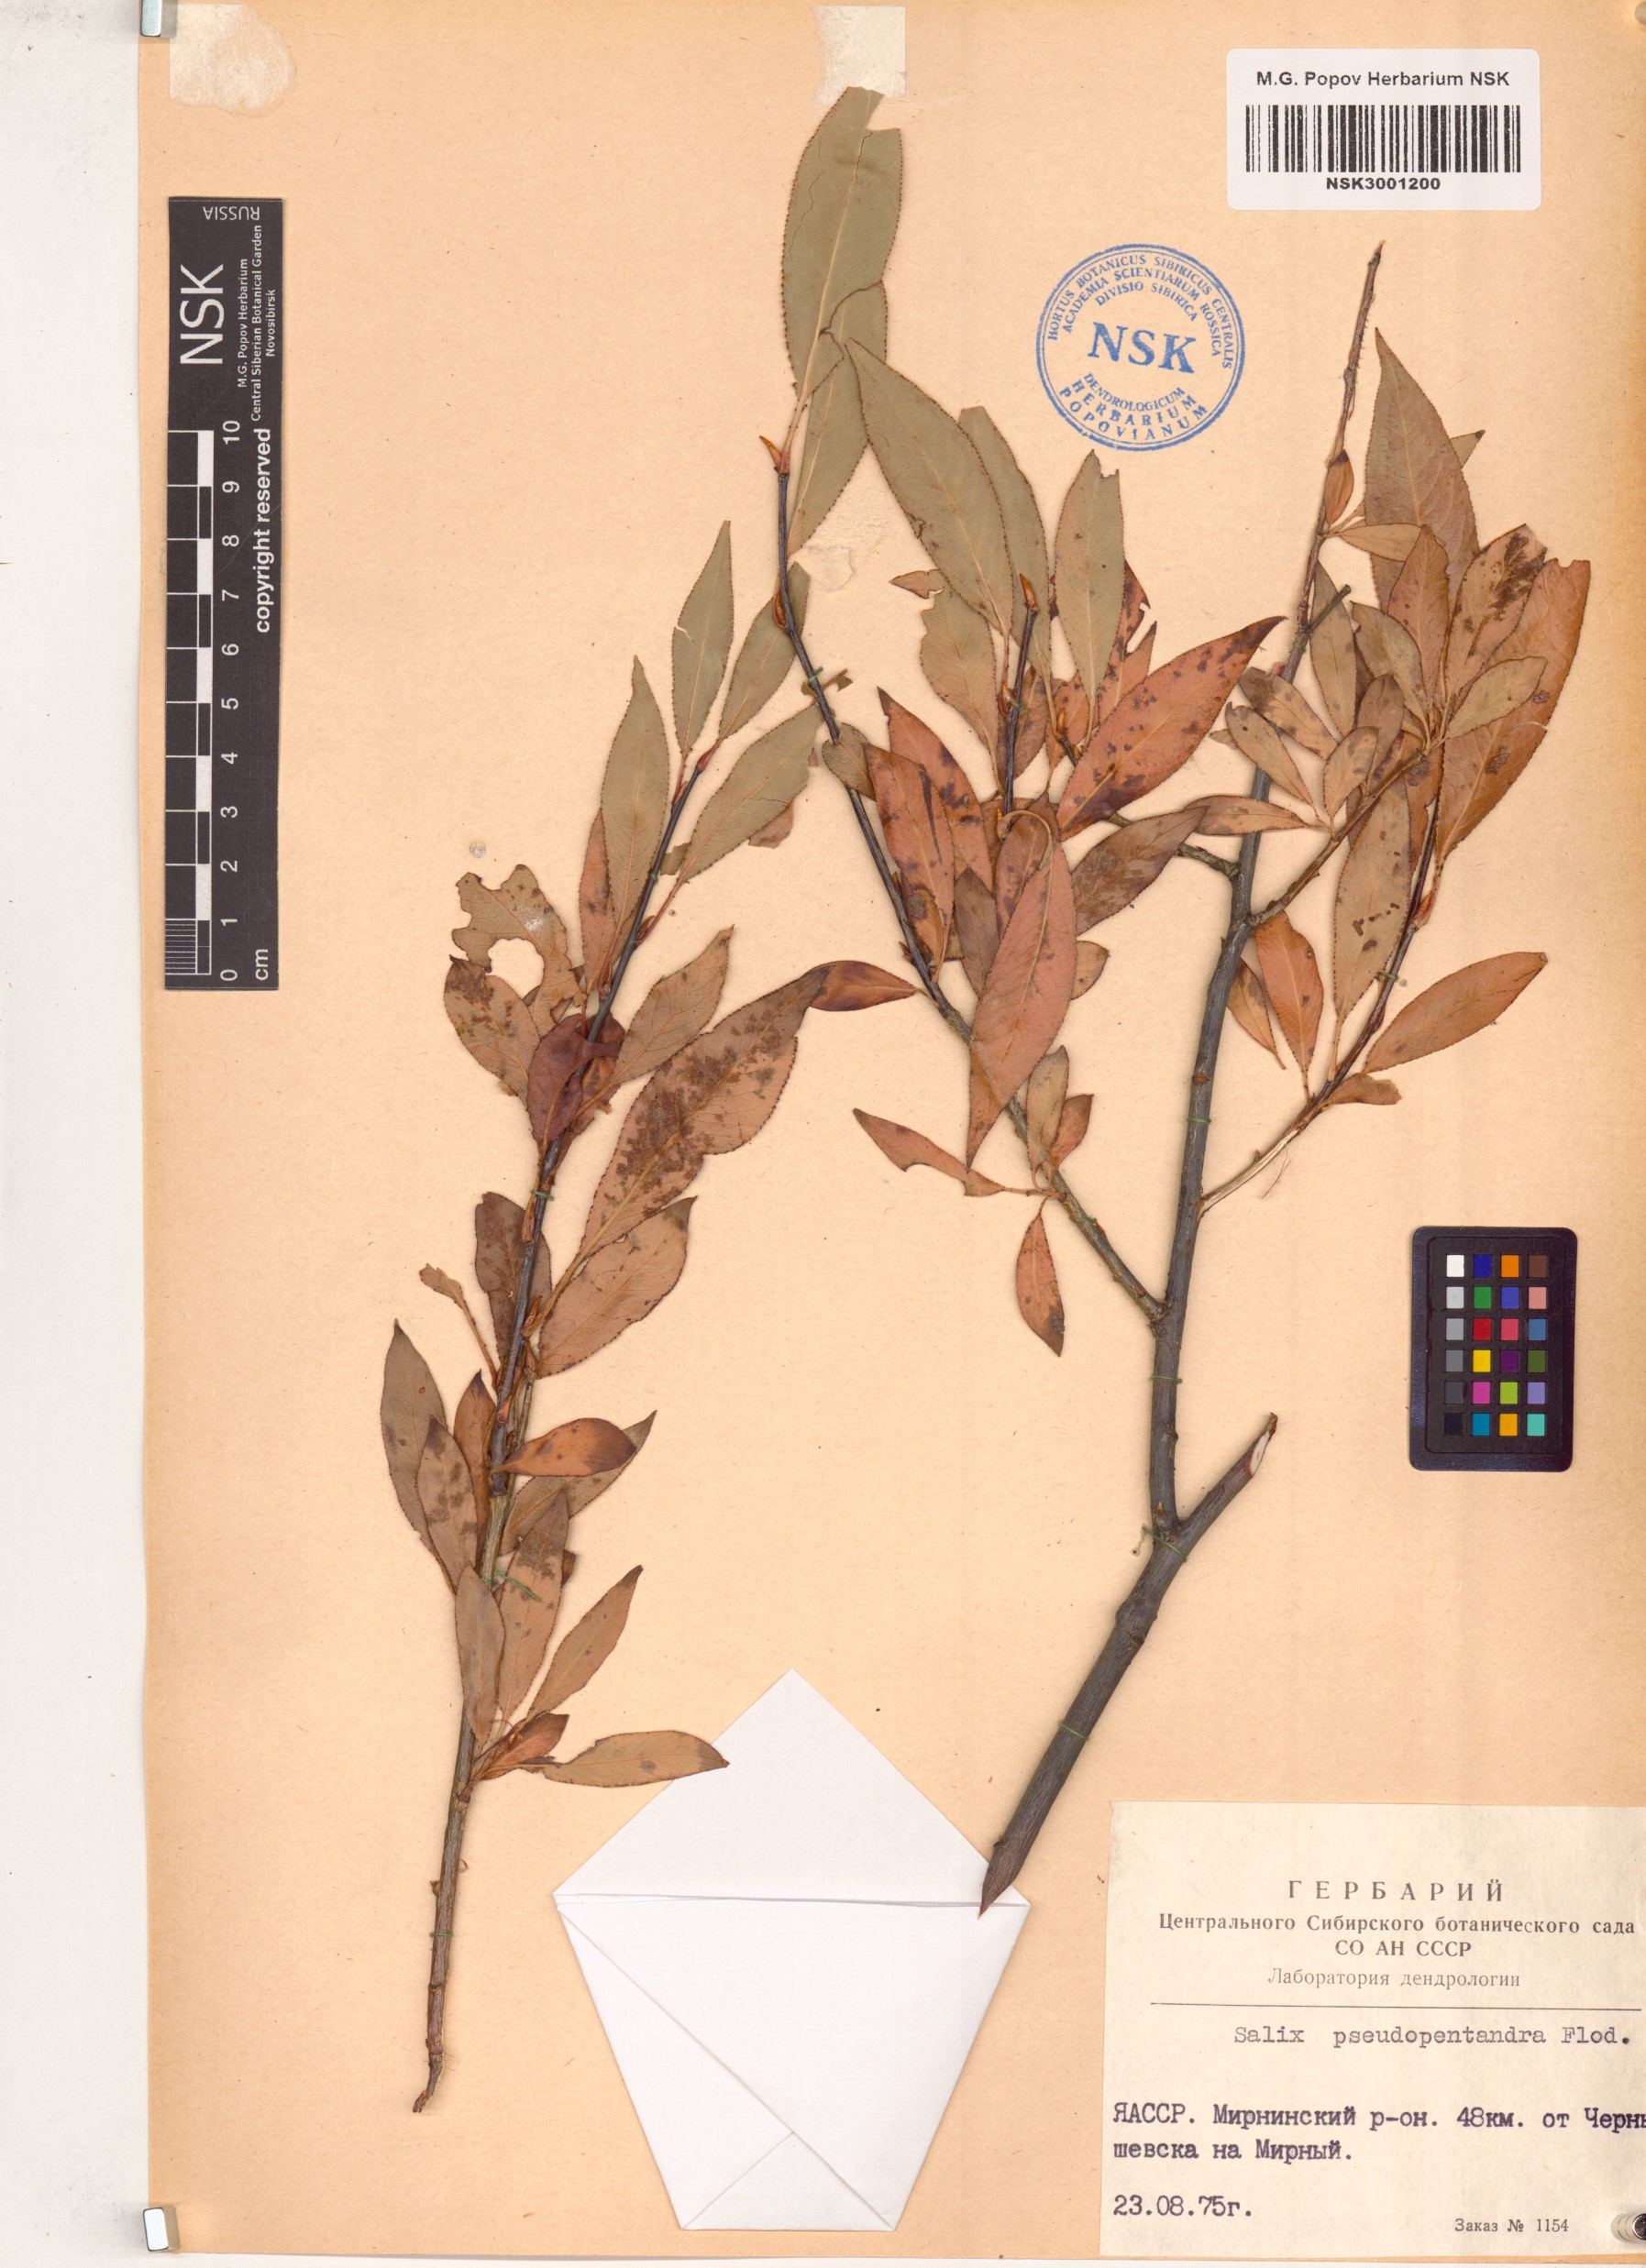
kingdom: Plantae
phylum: Tracheophyta
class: Magnoliopsida
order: Malpighiales
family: Salicaceae
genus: Salix
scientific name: Salix pseudopentandra
